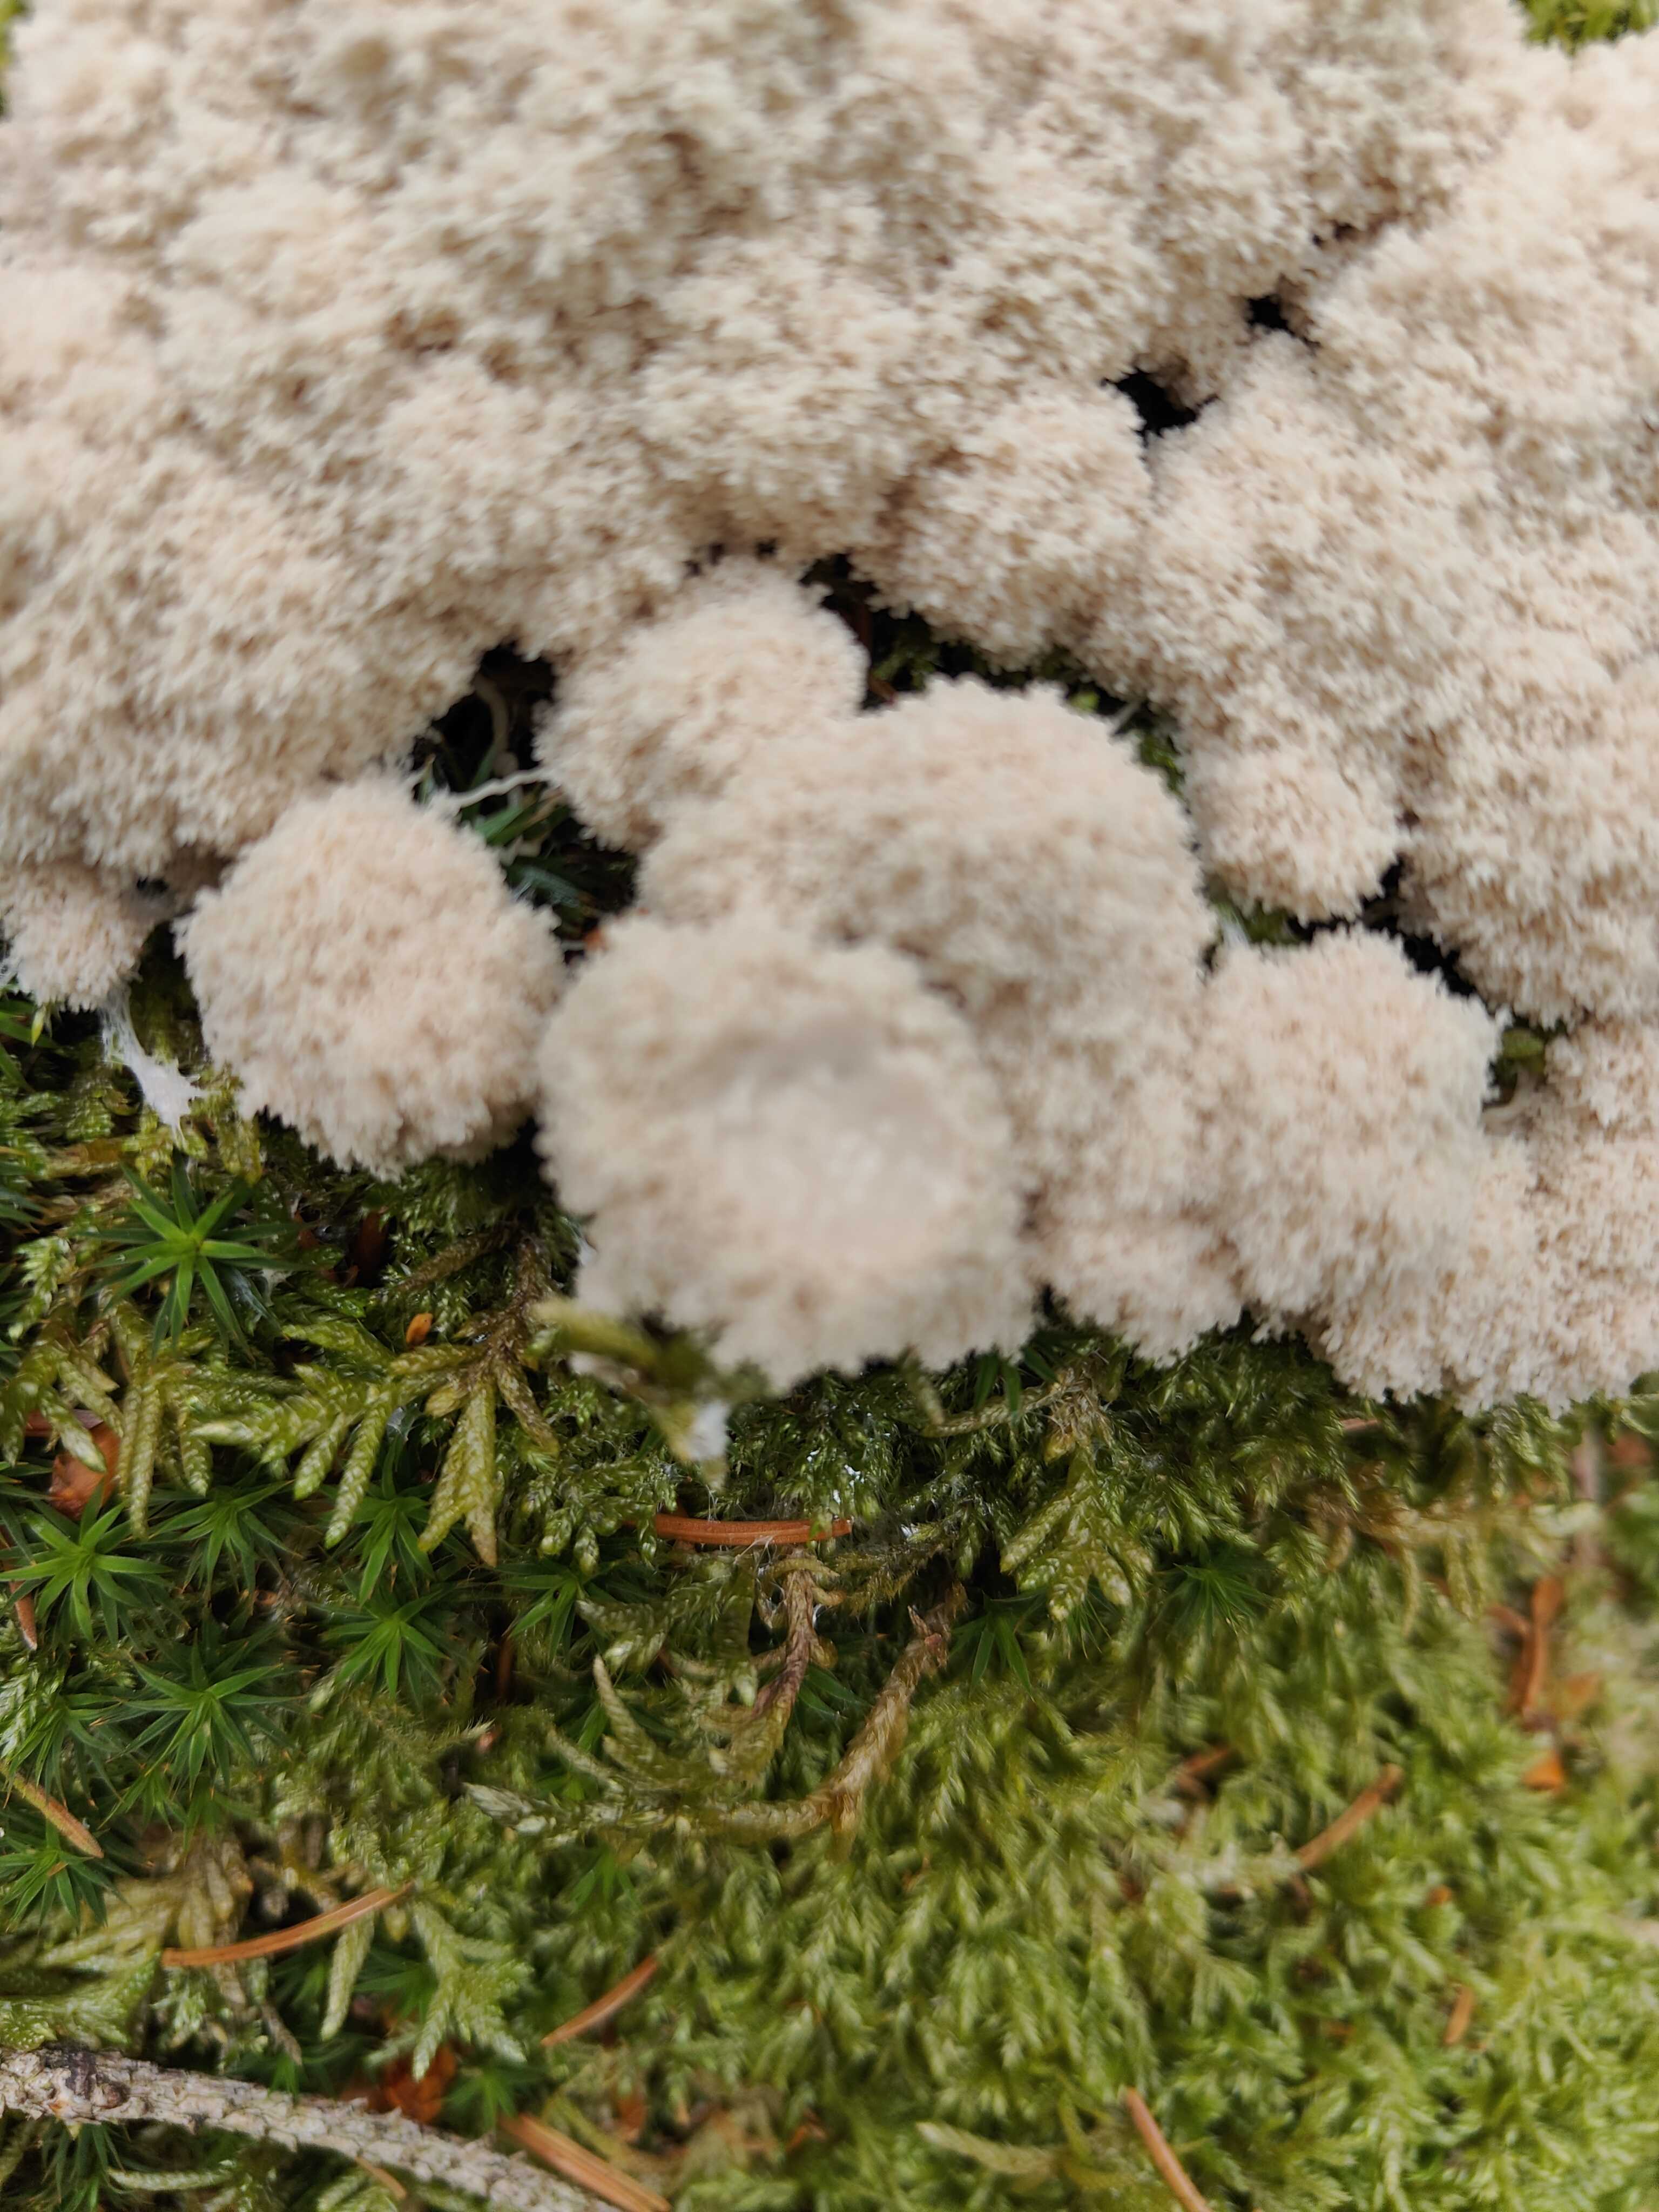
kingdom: Fungi
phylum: Basidiomycota
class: Agaricomycetes
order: Polyporales
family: Dacryobolaceae
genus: Postia
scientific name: Postia ptychogaster
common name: støvende kødporesvamp
